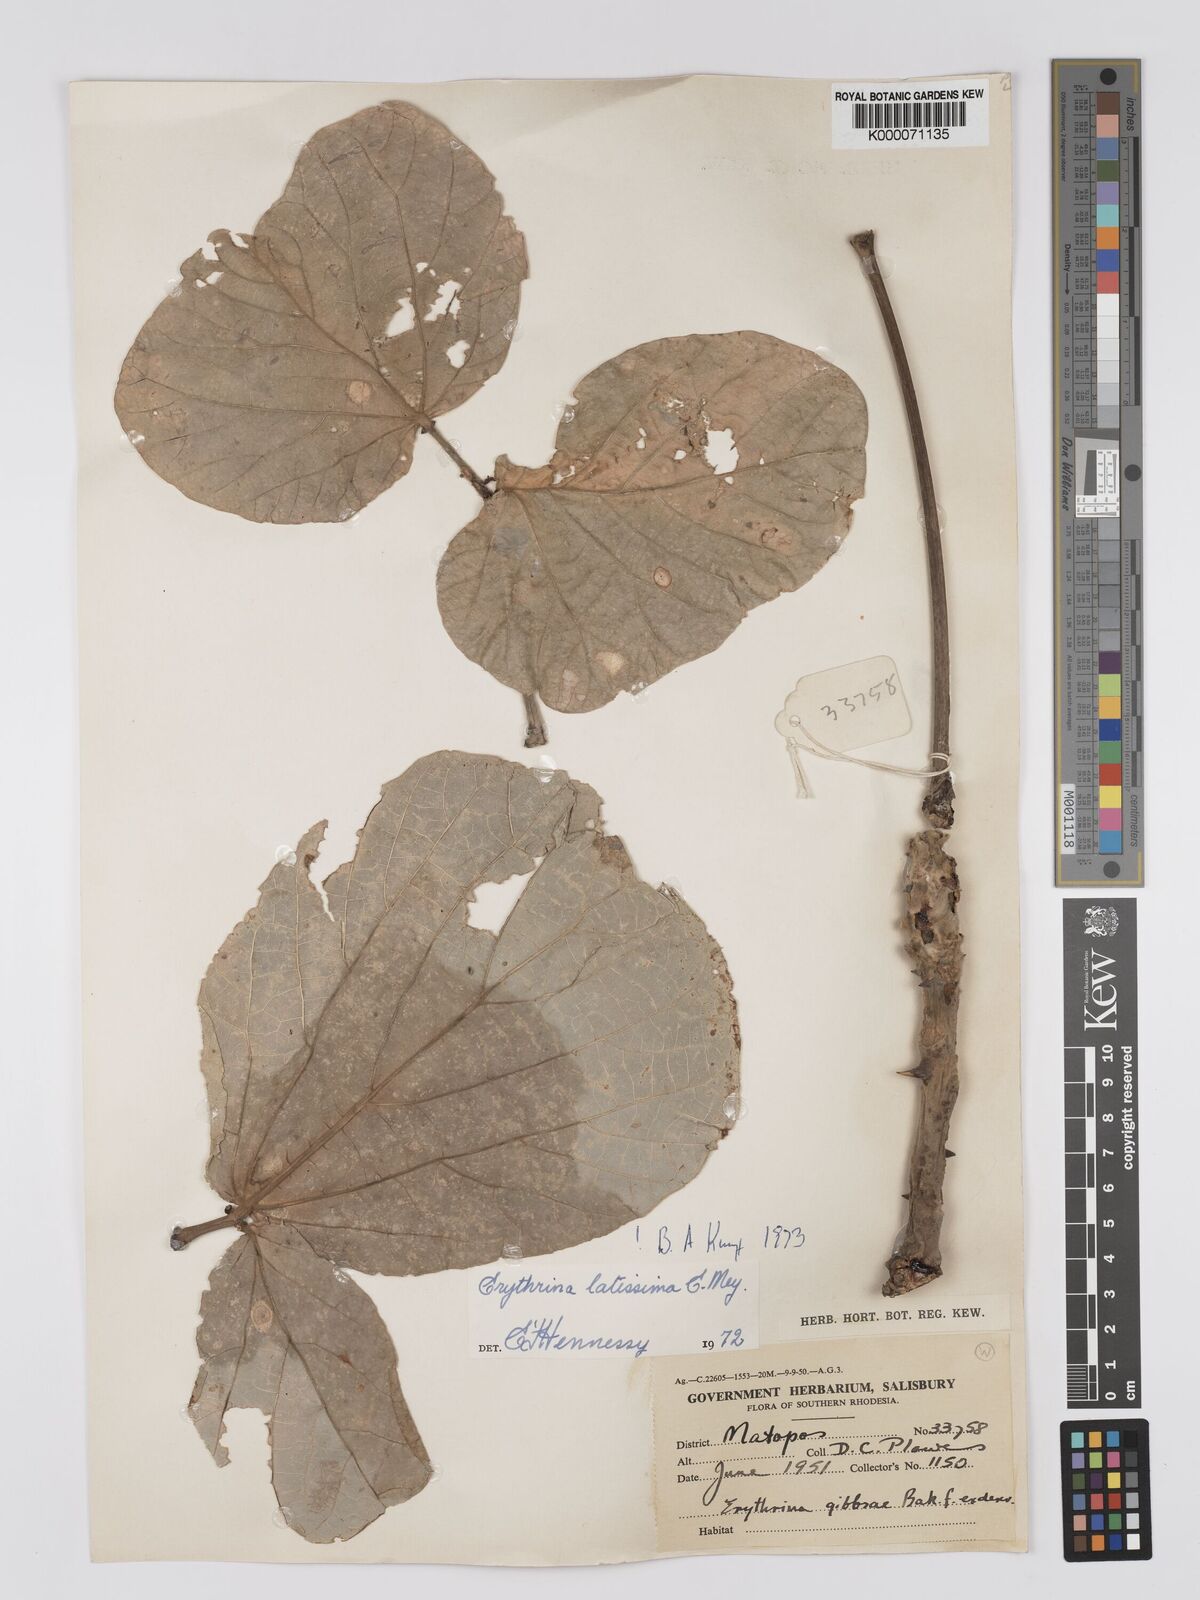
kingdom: Plantae
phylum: Tracheophyta
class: Magnoliopsida
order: Fabales
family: Fabaceae
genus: Erythrina
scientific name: Erythrina latissima
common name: Broad-leaved coral tree
